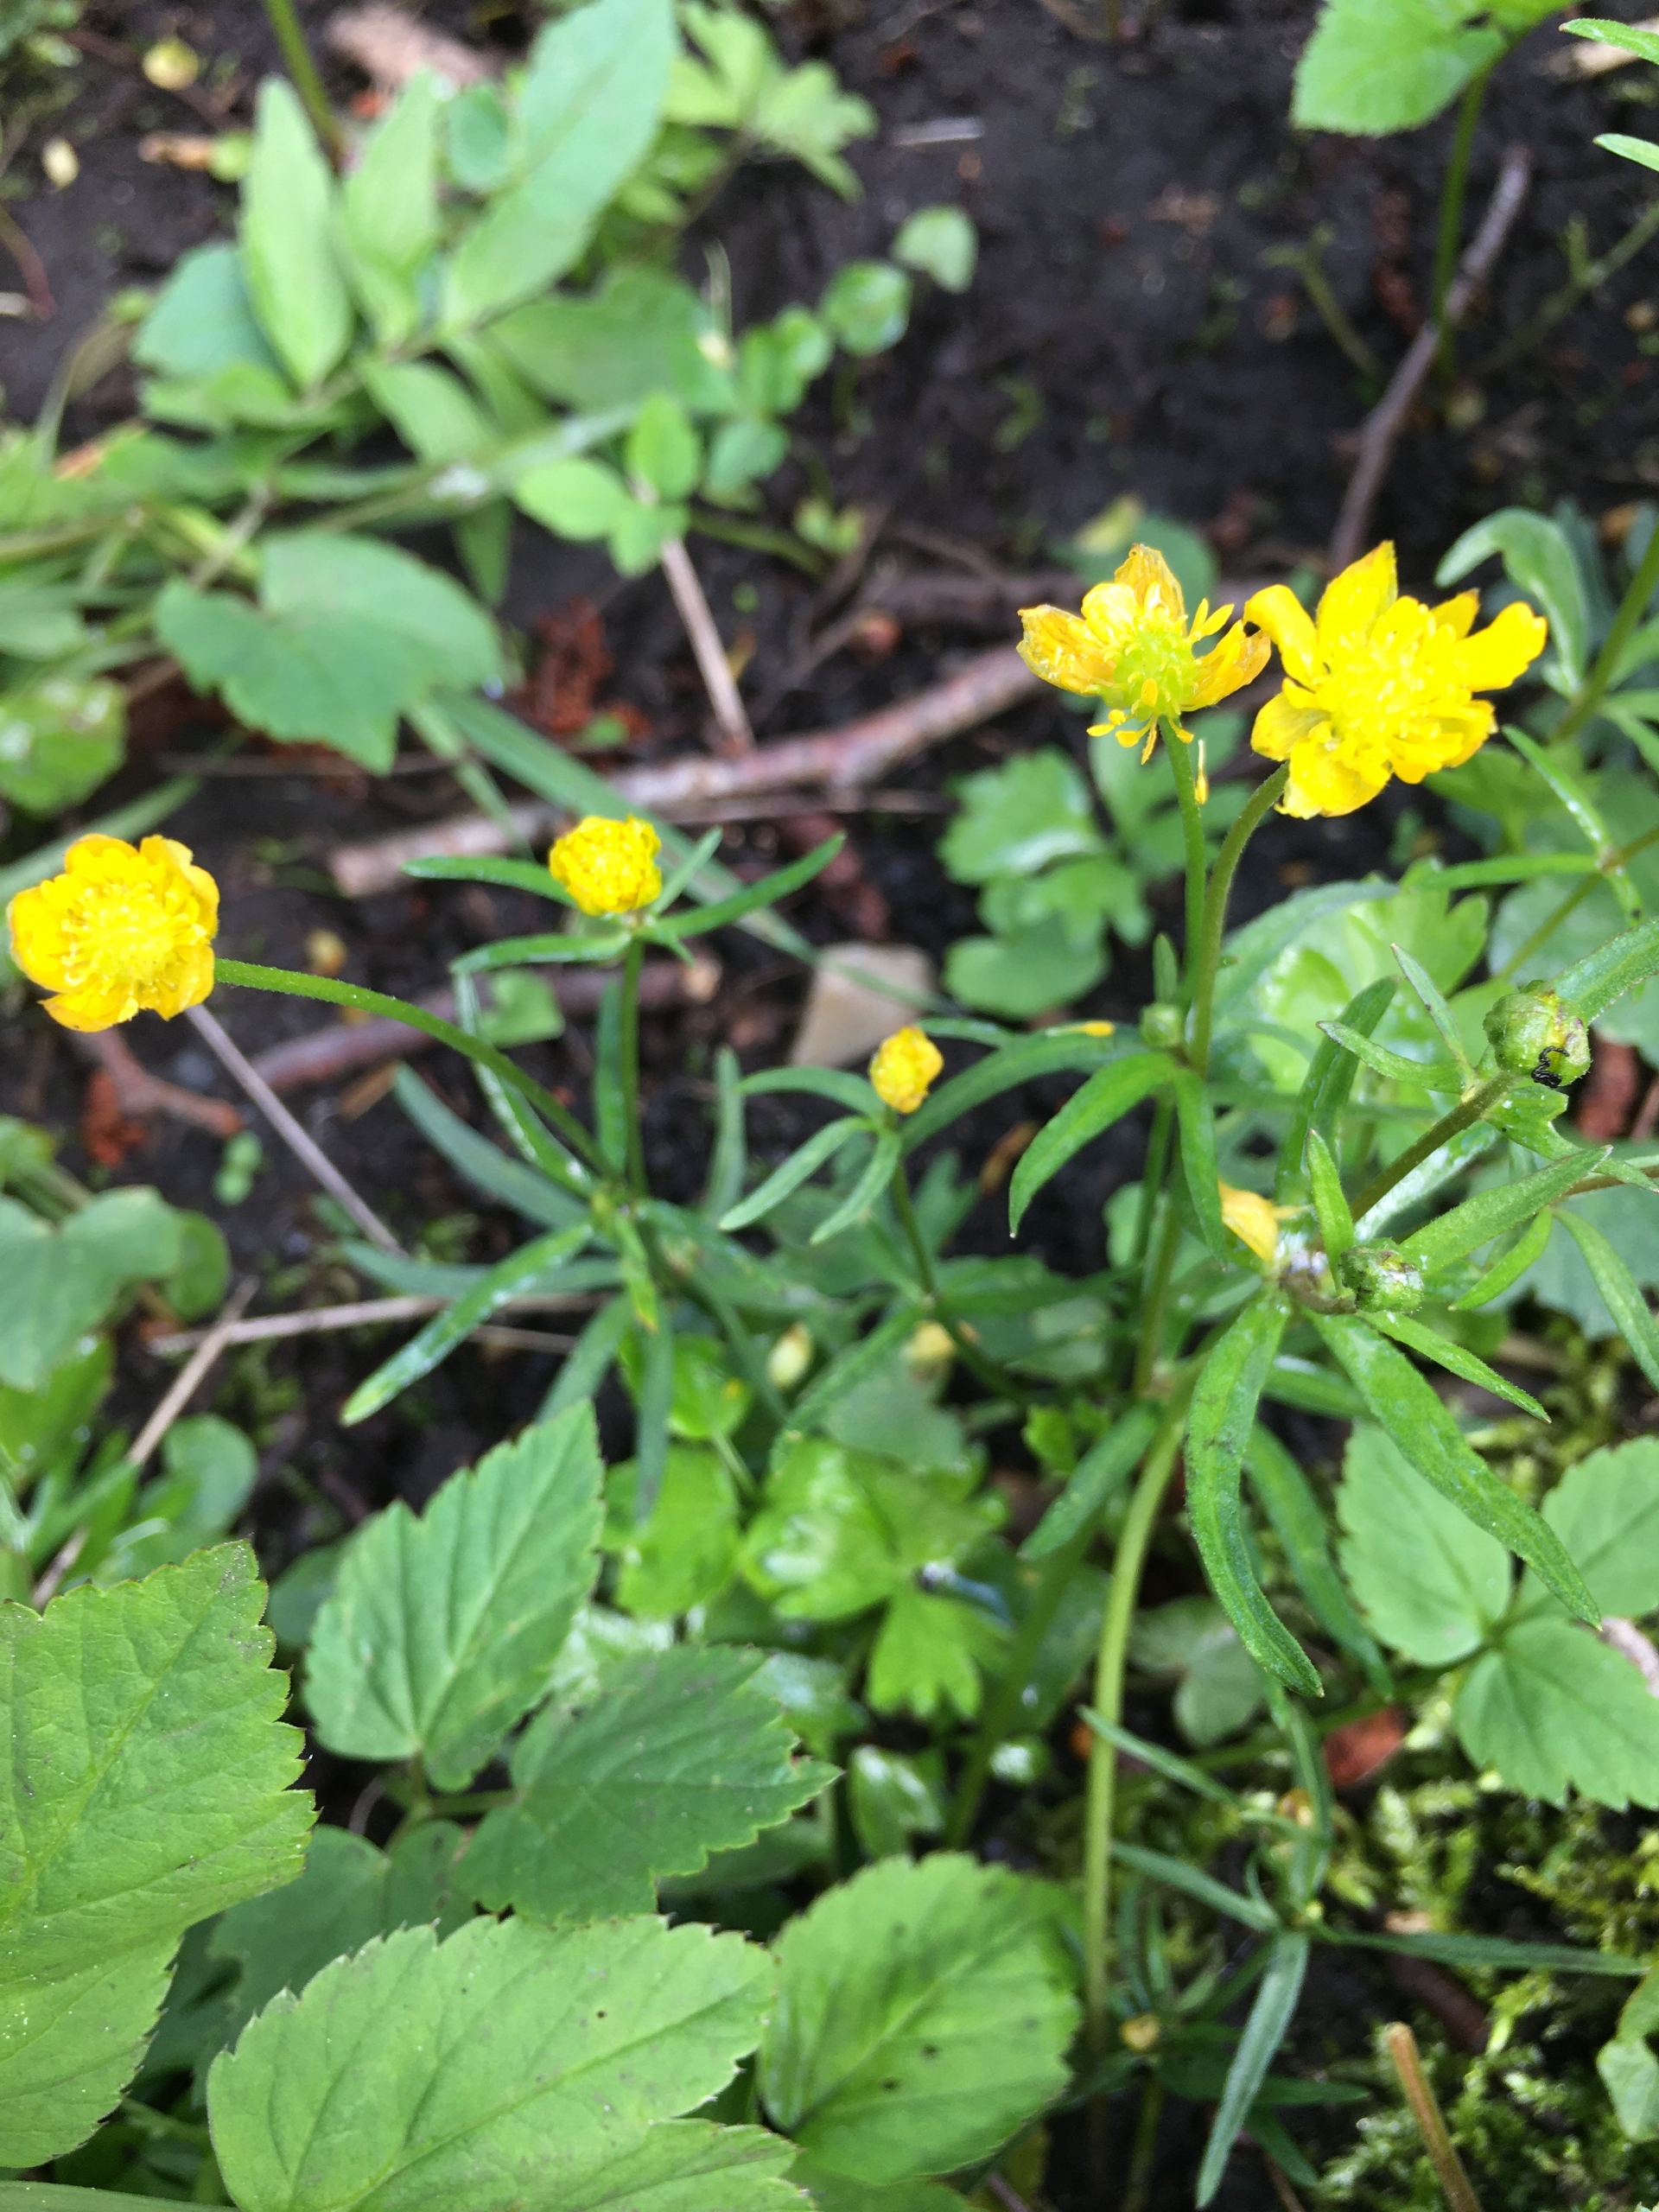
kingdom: Plantae
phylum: Tracheophyta
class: Magnoliopsida
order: Ranunculales
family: Ranunculaceae
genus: Ranunculus
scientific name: Ranunculus auricomus
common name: Nyrebladet ranunkel
